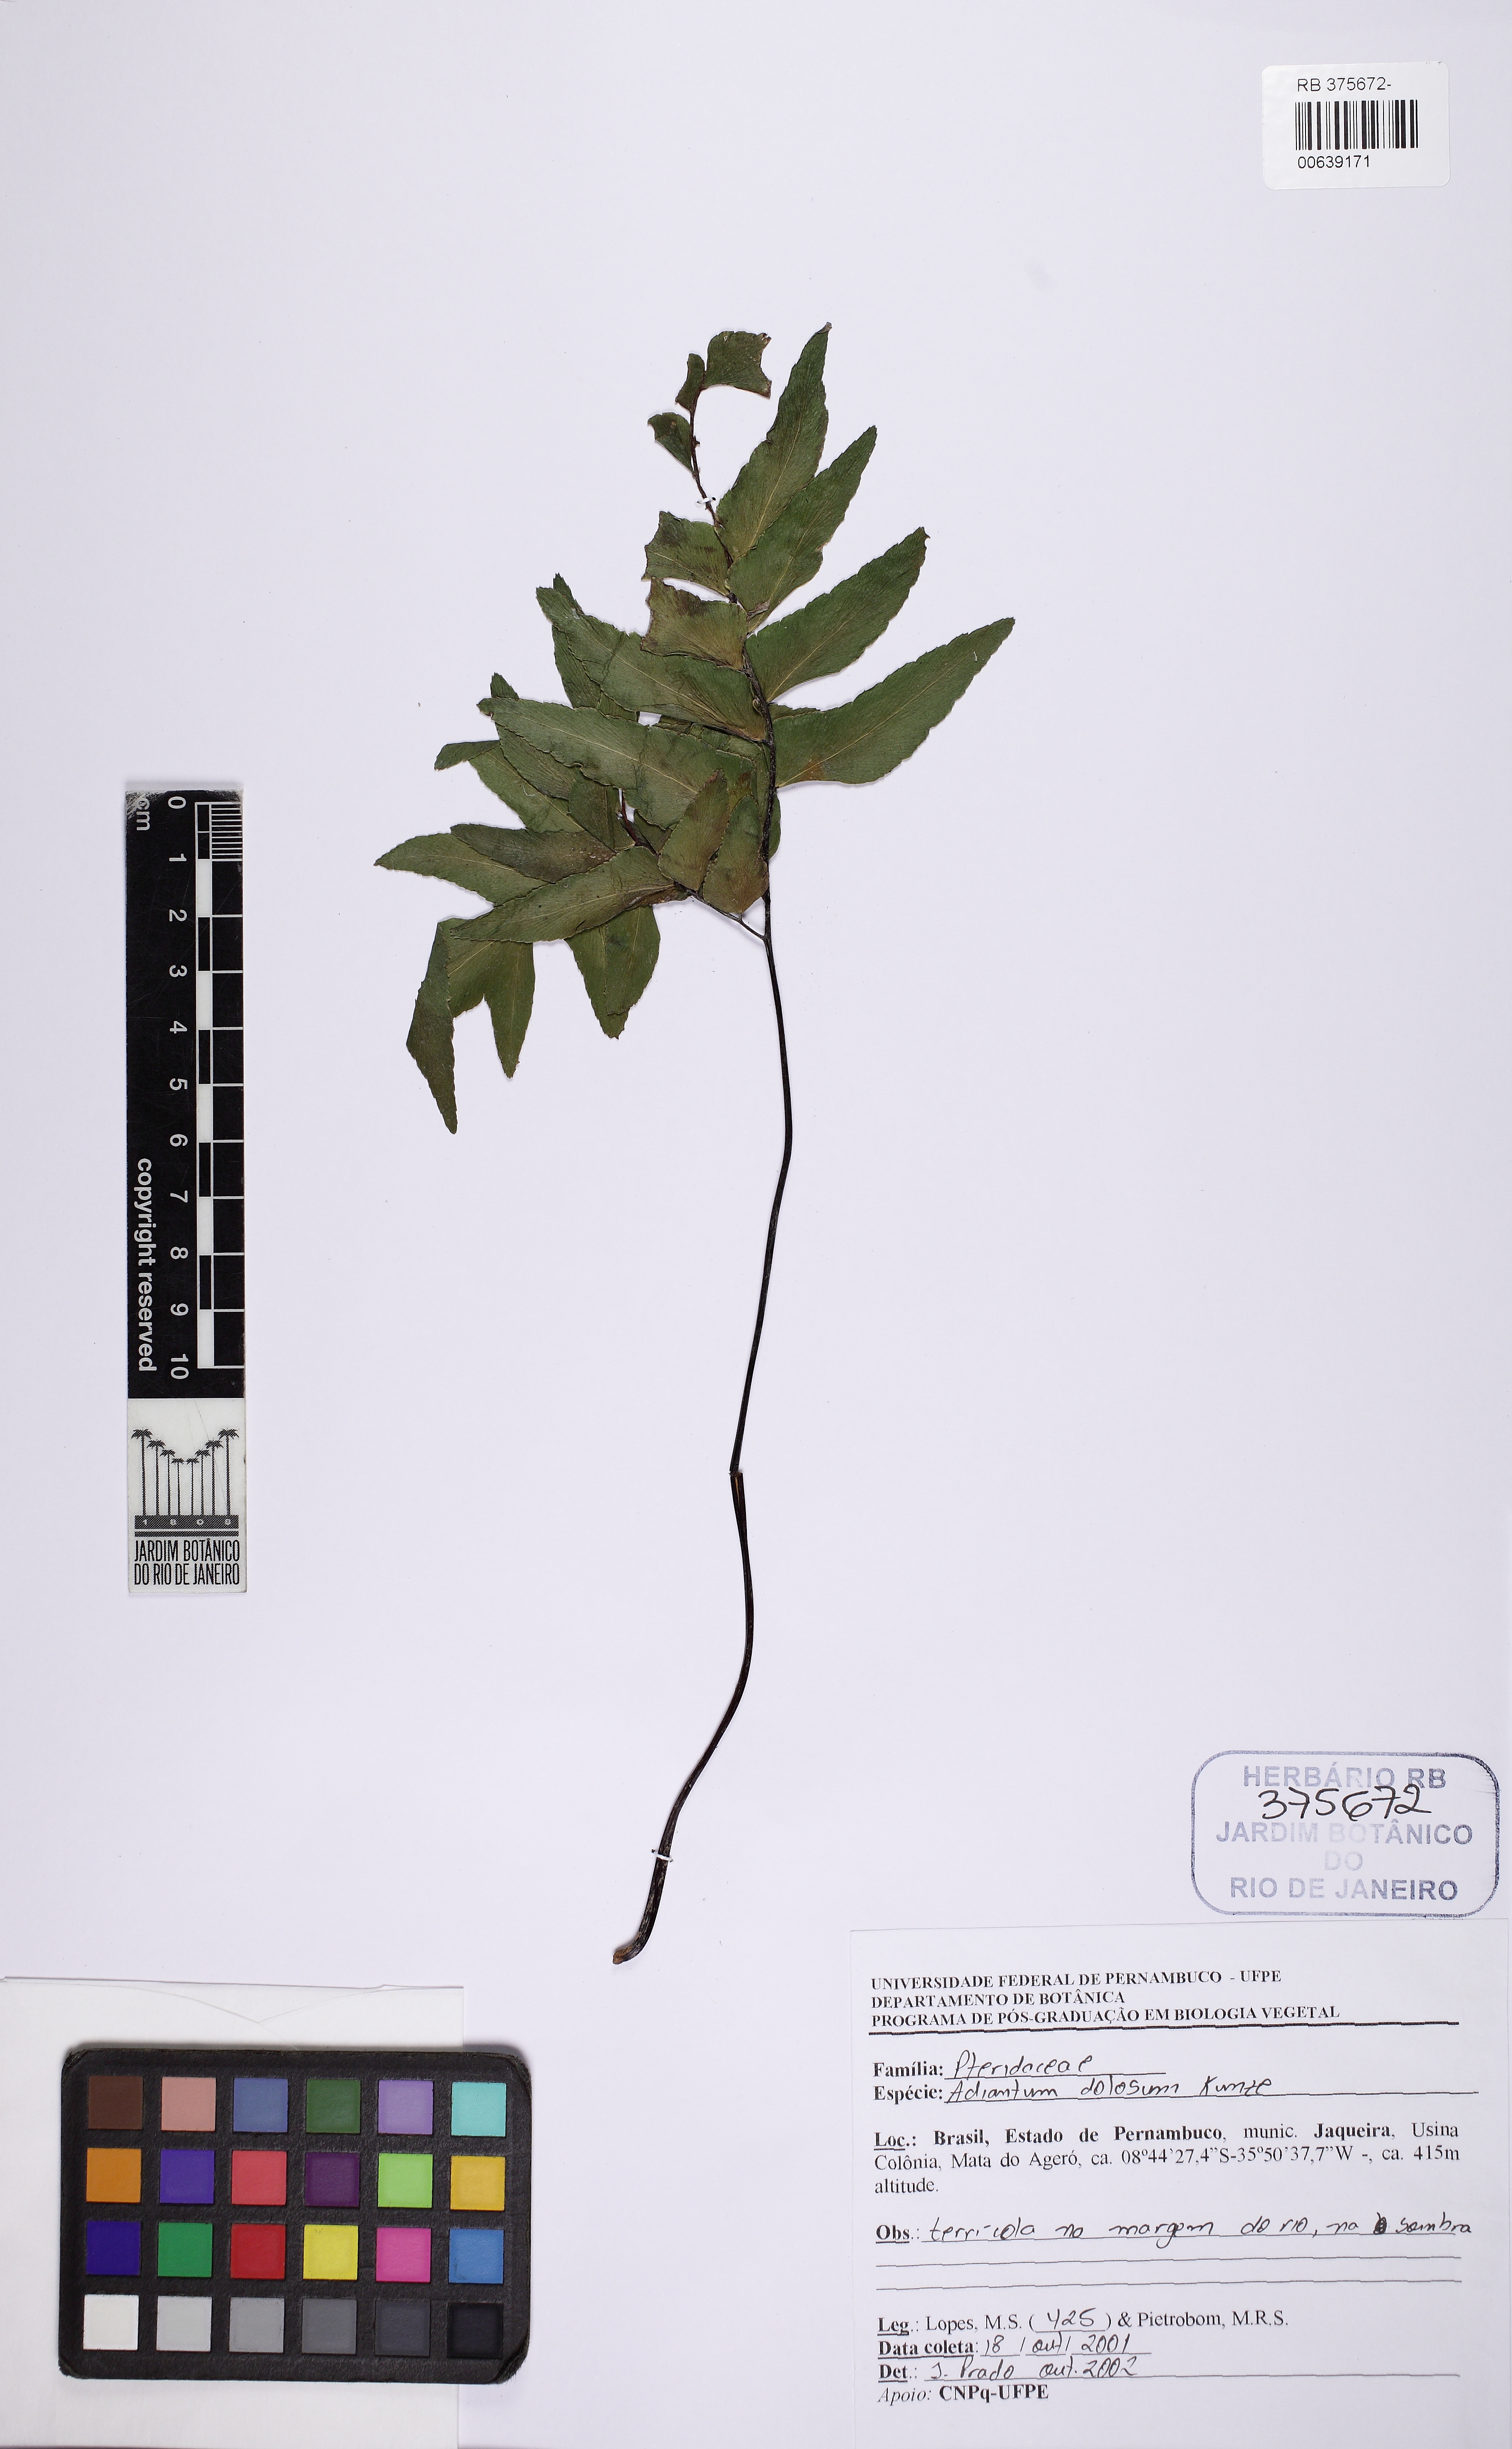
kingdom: Plantae
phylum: Tracheophyta
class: Polypodiopsida
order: Polypodiales
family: Pteridaceae
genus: Adiantum
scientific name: Adiantum dolosum
